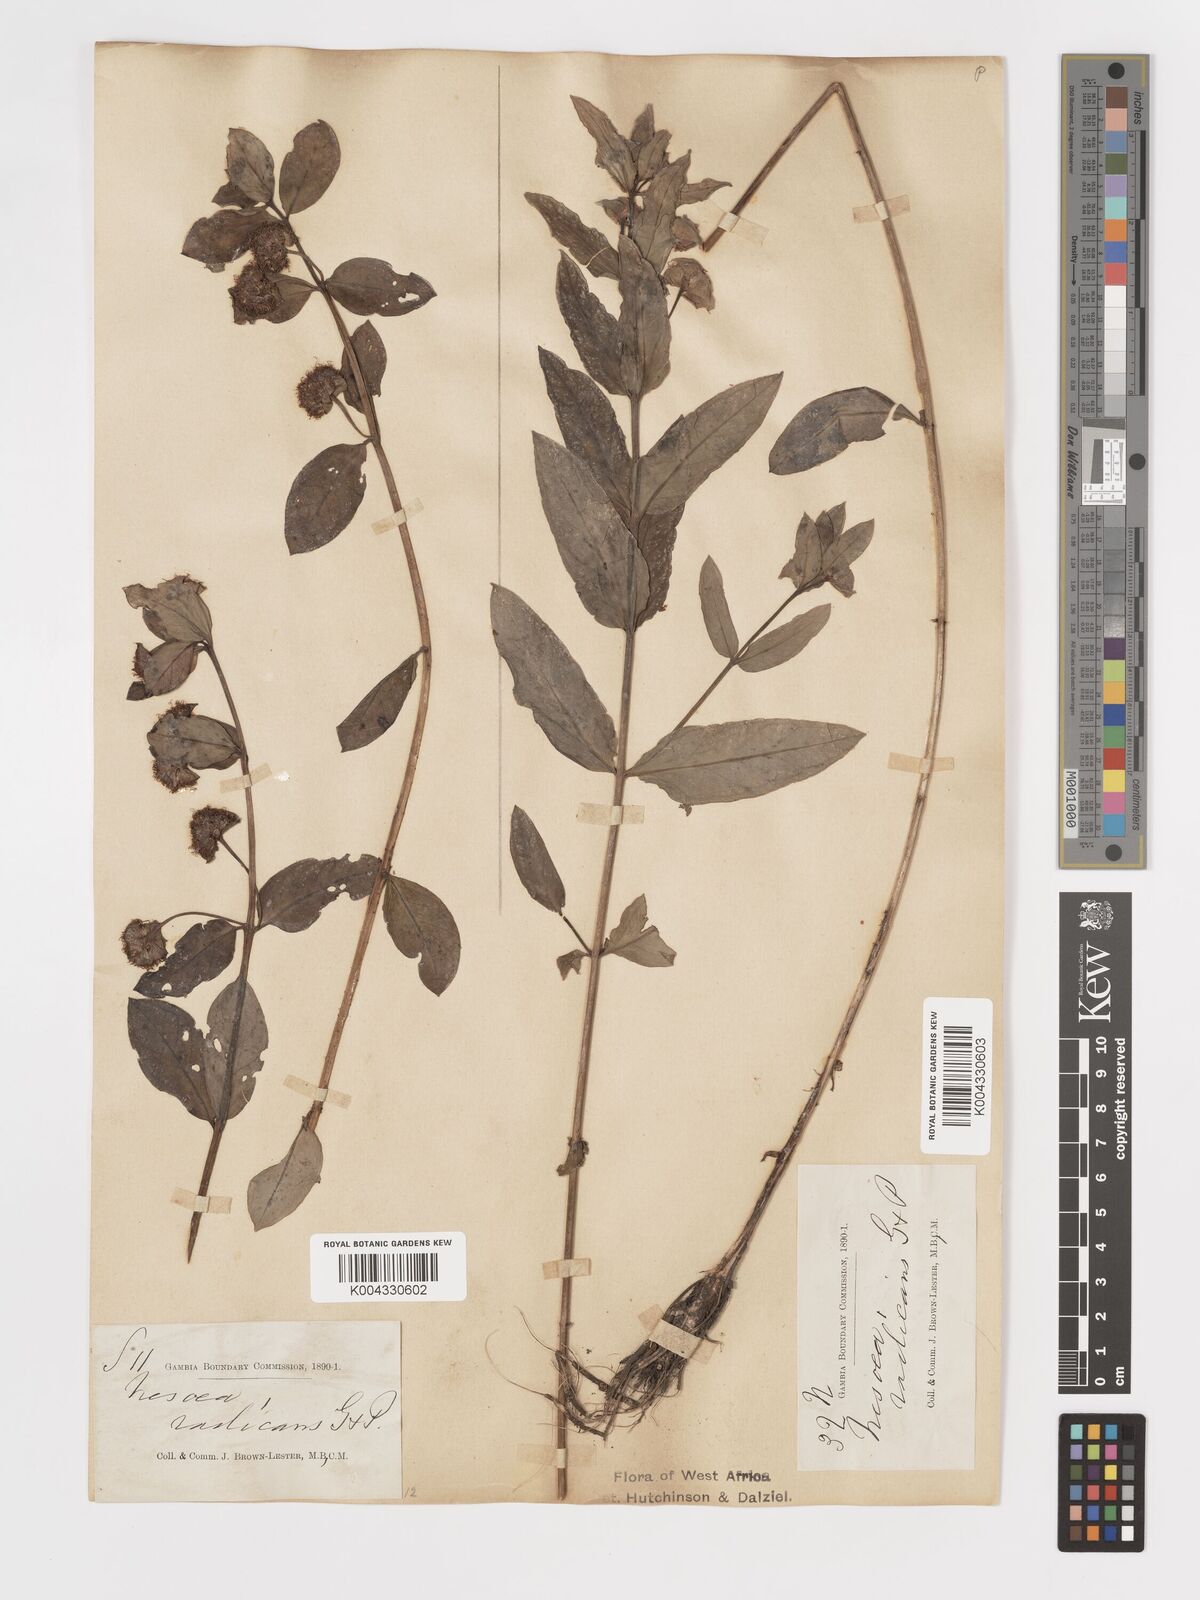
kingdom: Plantae
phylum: Tracheophyta
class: Magnoliopsida
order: Myrtales
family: Lythraceae
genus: Ammannia
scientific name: Ammannia radicans
